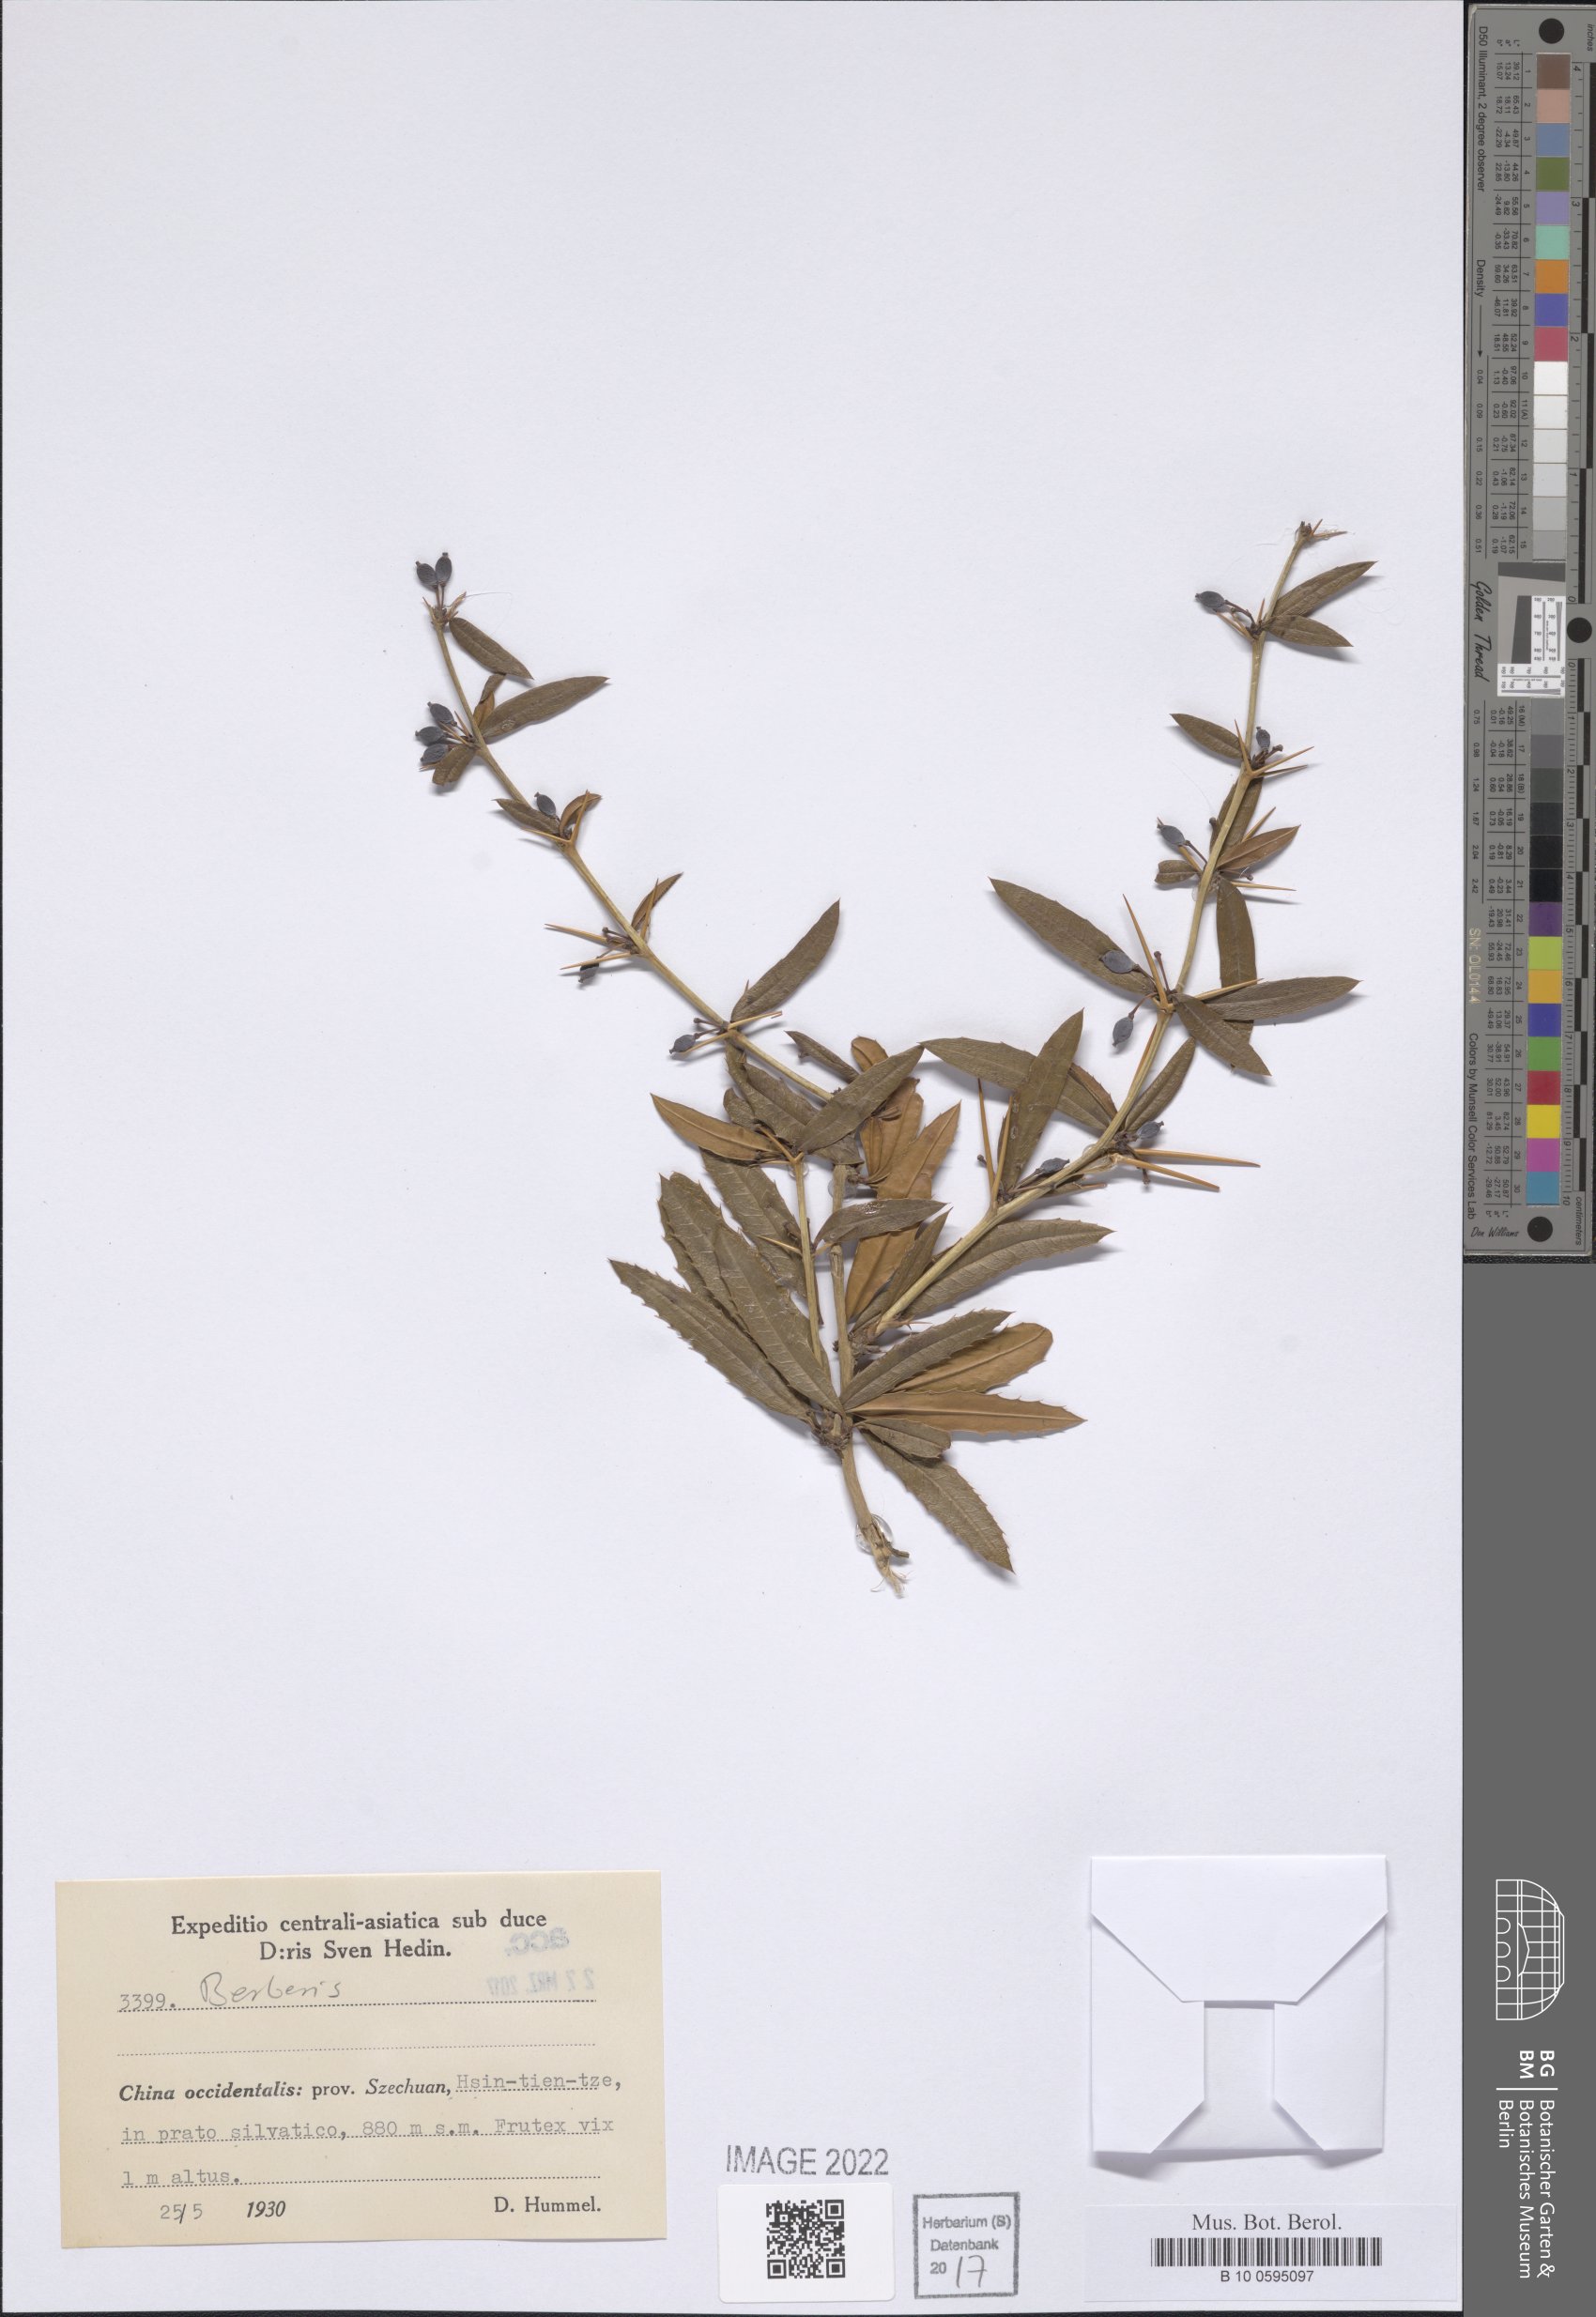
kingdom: Plantae
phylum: Tracheophyta
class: Magnoliopsida
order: Ranunculales
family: Berberidaceae
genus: Berberis
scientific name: Berberis
